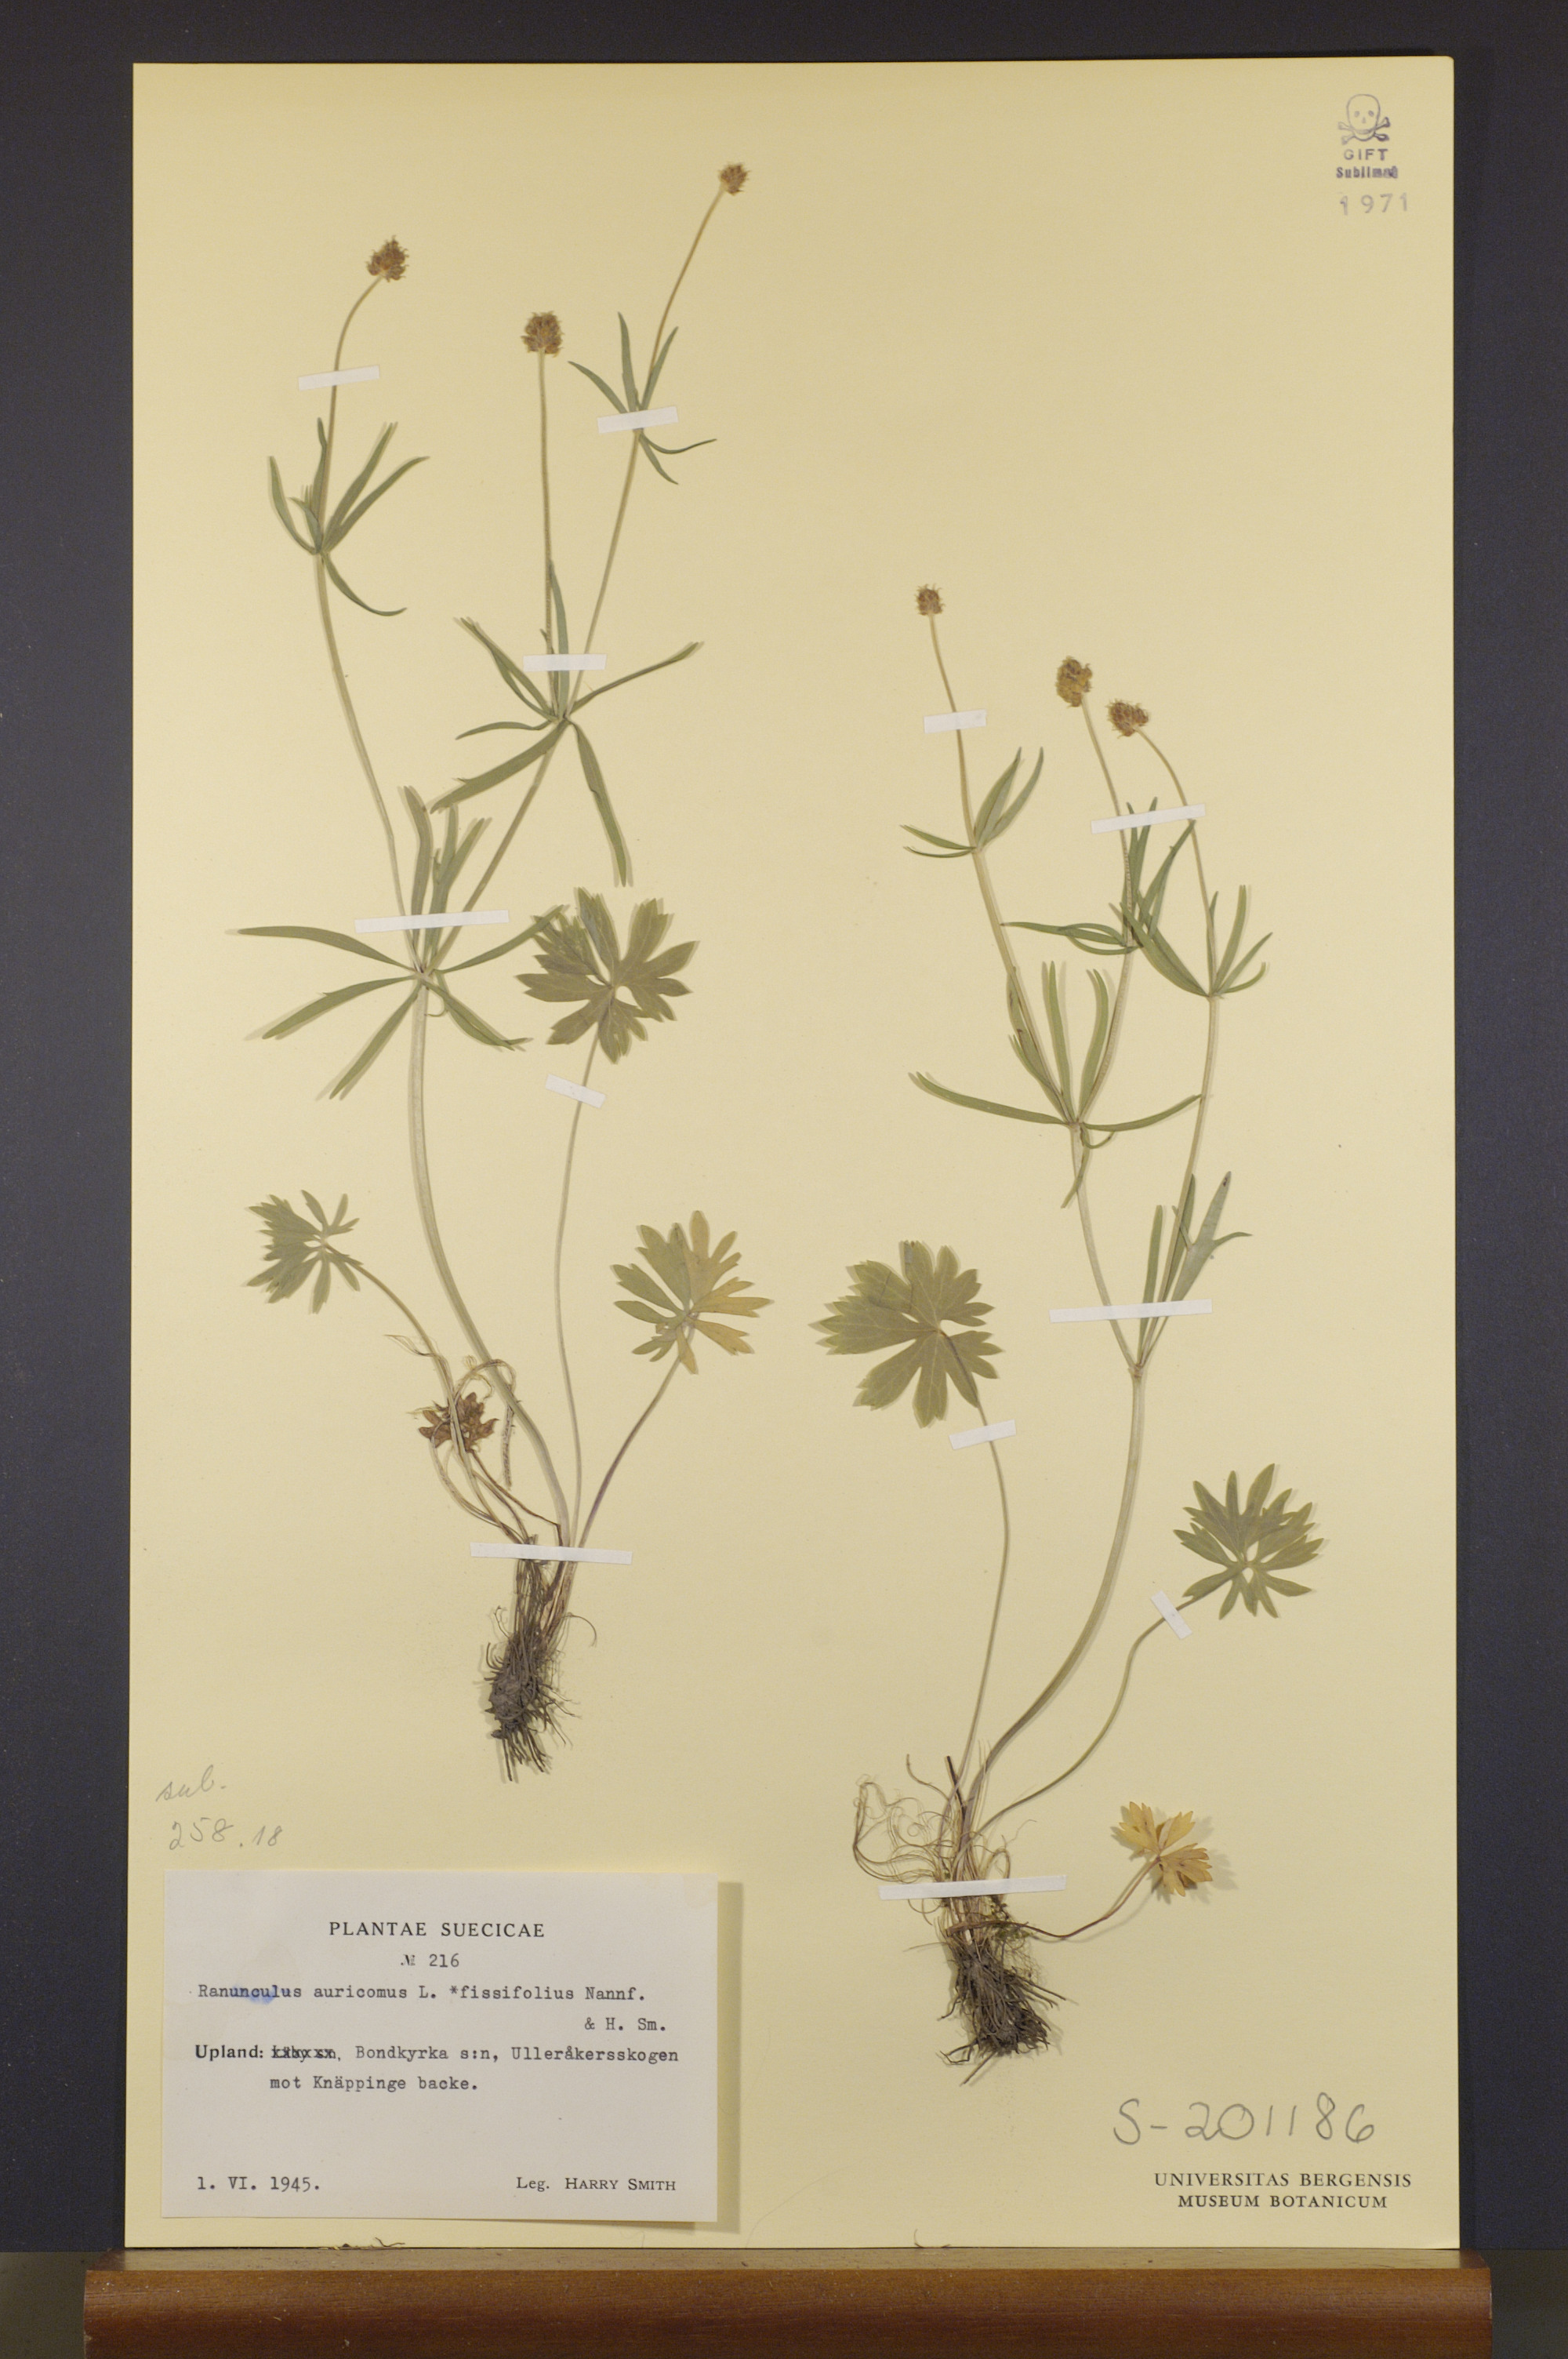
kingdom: Plantae
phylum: Tracheophyta
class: Magnoliopsida
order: Ranunculales
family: Ranunculaceae
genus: Ranunculus
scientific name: Ranunculus fissifolius
